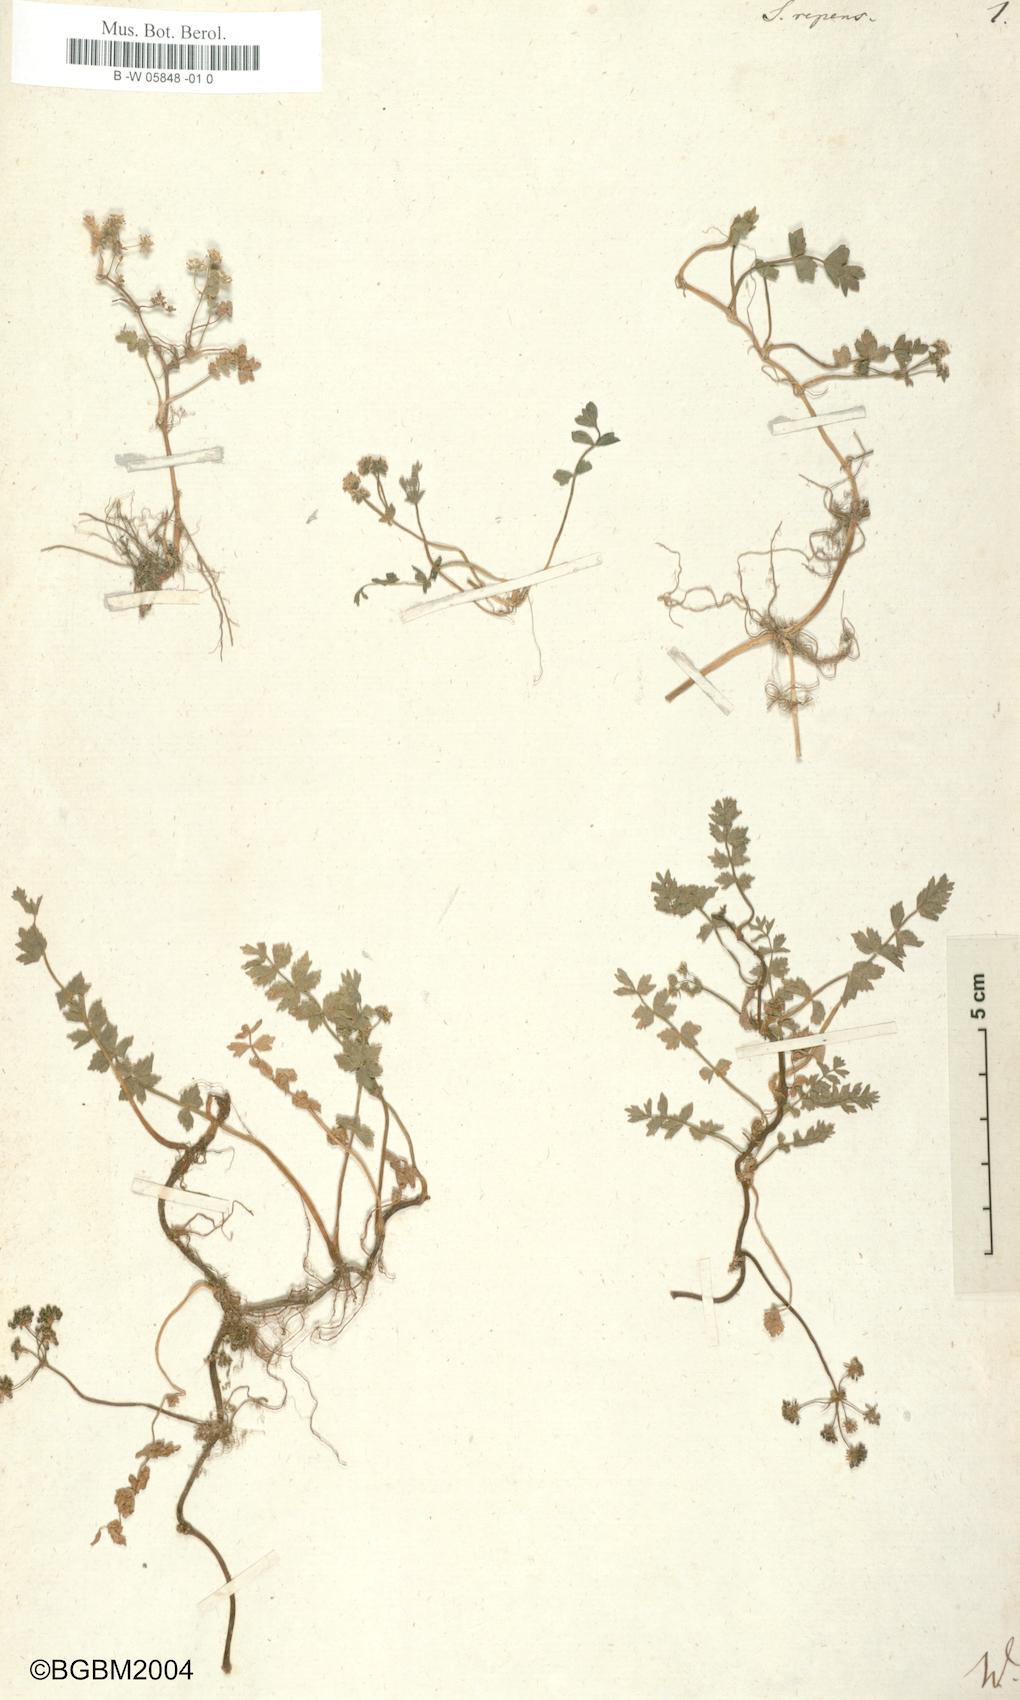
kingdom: Plantae
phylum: Tracheophyta
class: Magnoliopsida
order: Apiales
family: Apiaceae
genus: Helosciadium
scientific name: Helosciadium
